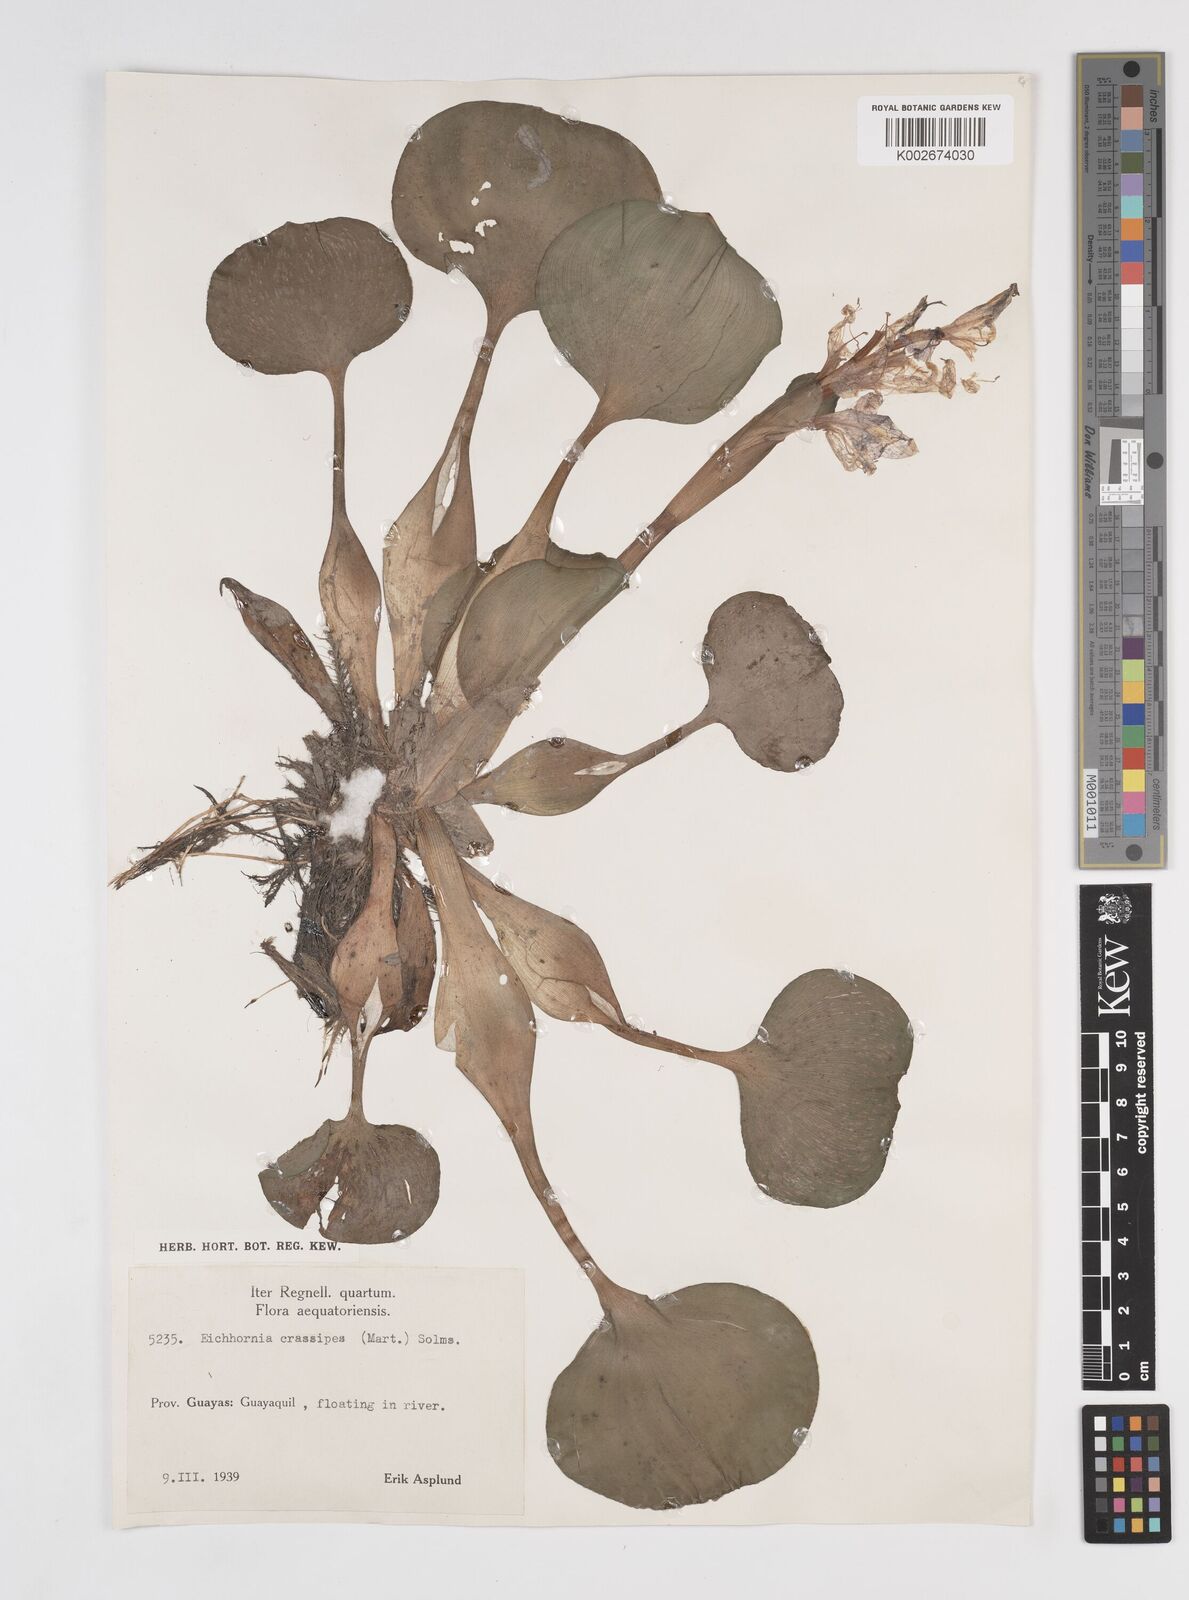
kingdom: Plantae
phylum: Tracheophyta
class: Liliopsida
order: Commelinales
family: Pontederiaceae
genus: Pontederia
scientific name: Pontederia crassipes
